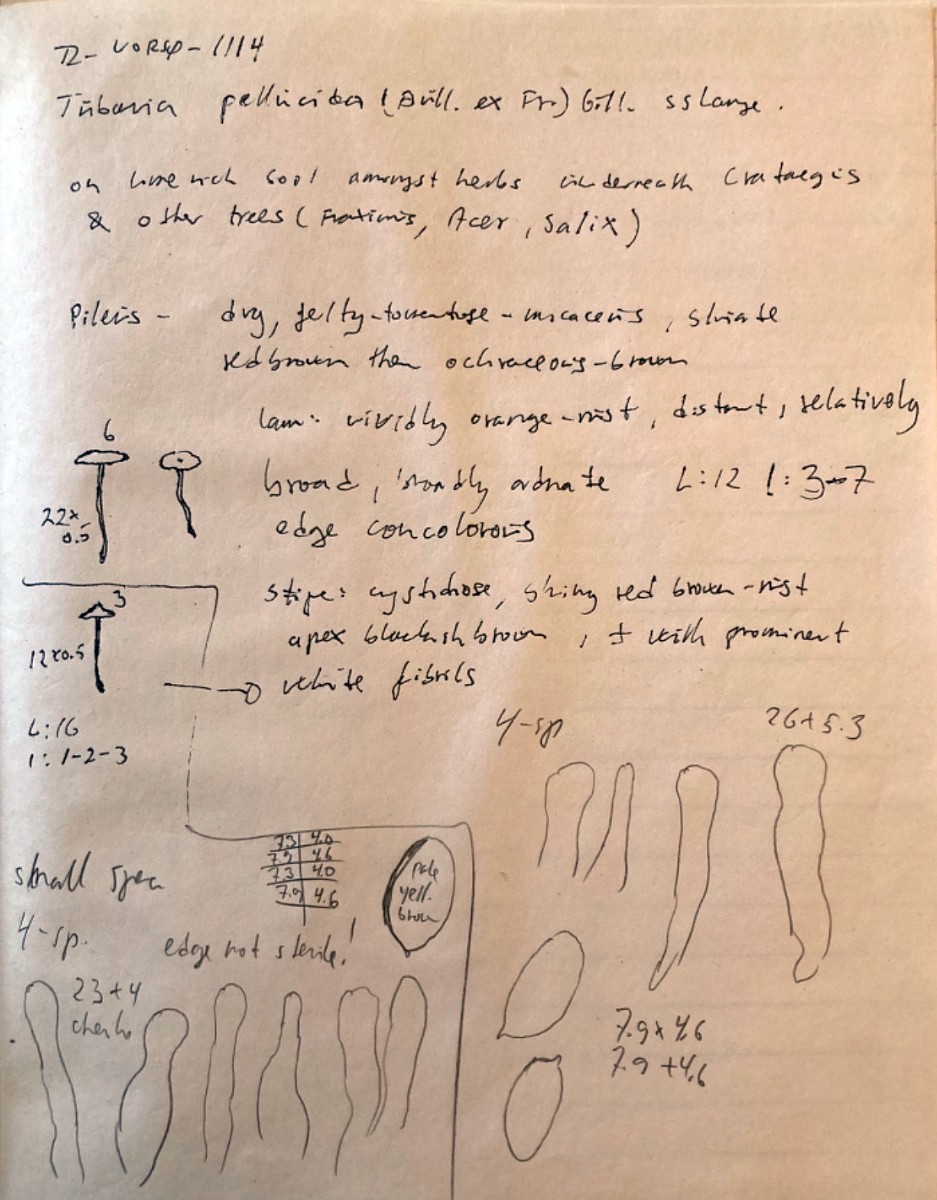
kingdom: Fungi
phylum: Basidiomycota
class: Agaricomycetes
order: Agaricales
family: Tubariaceae
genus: Tubaria
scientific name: Tubaria
